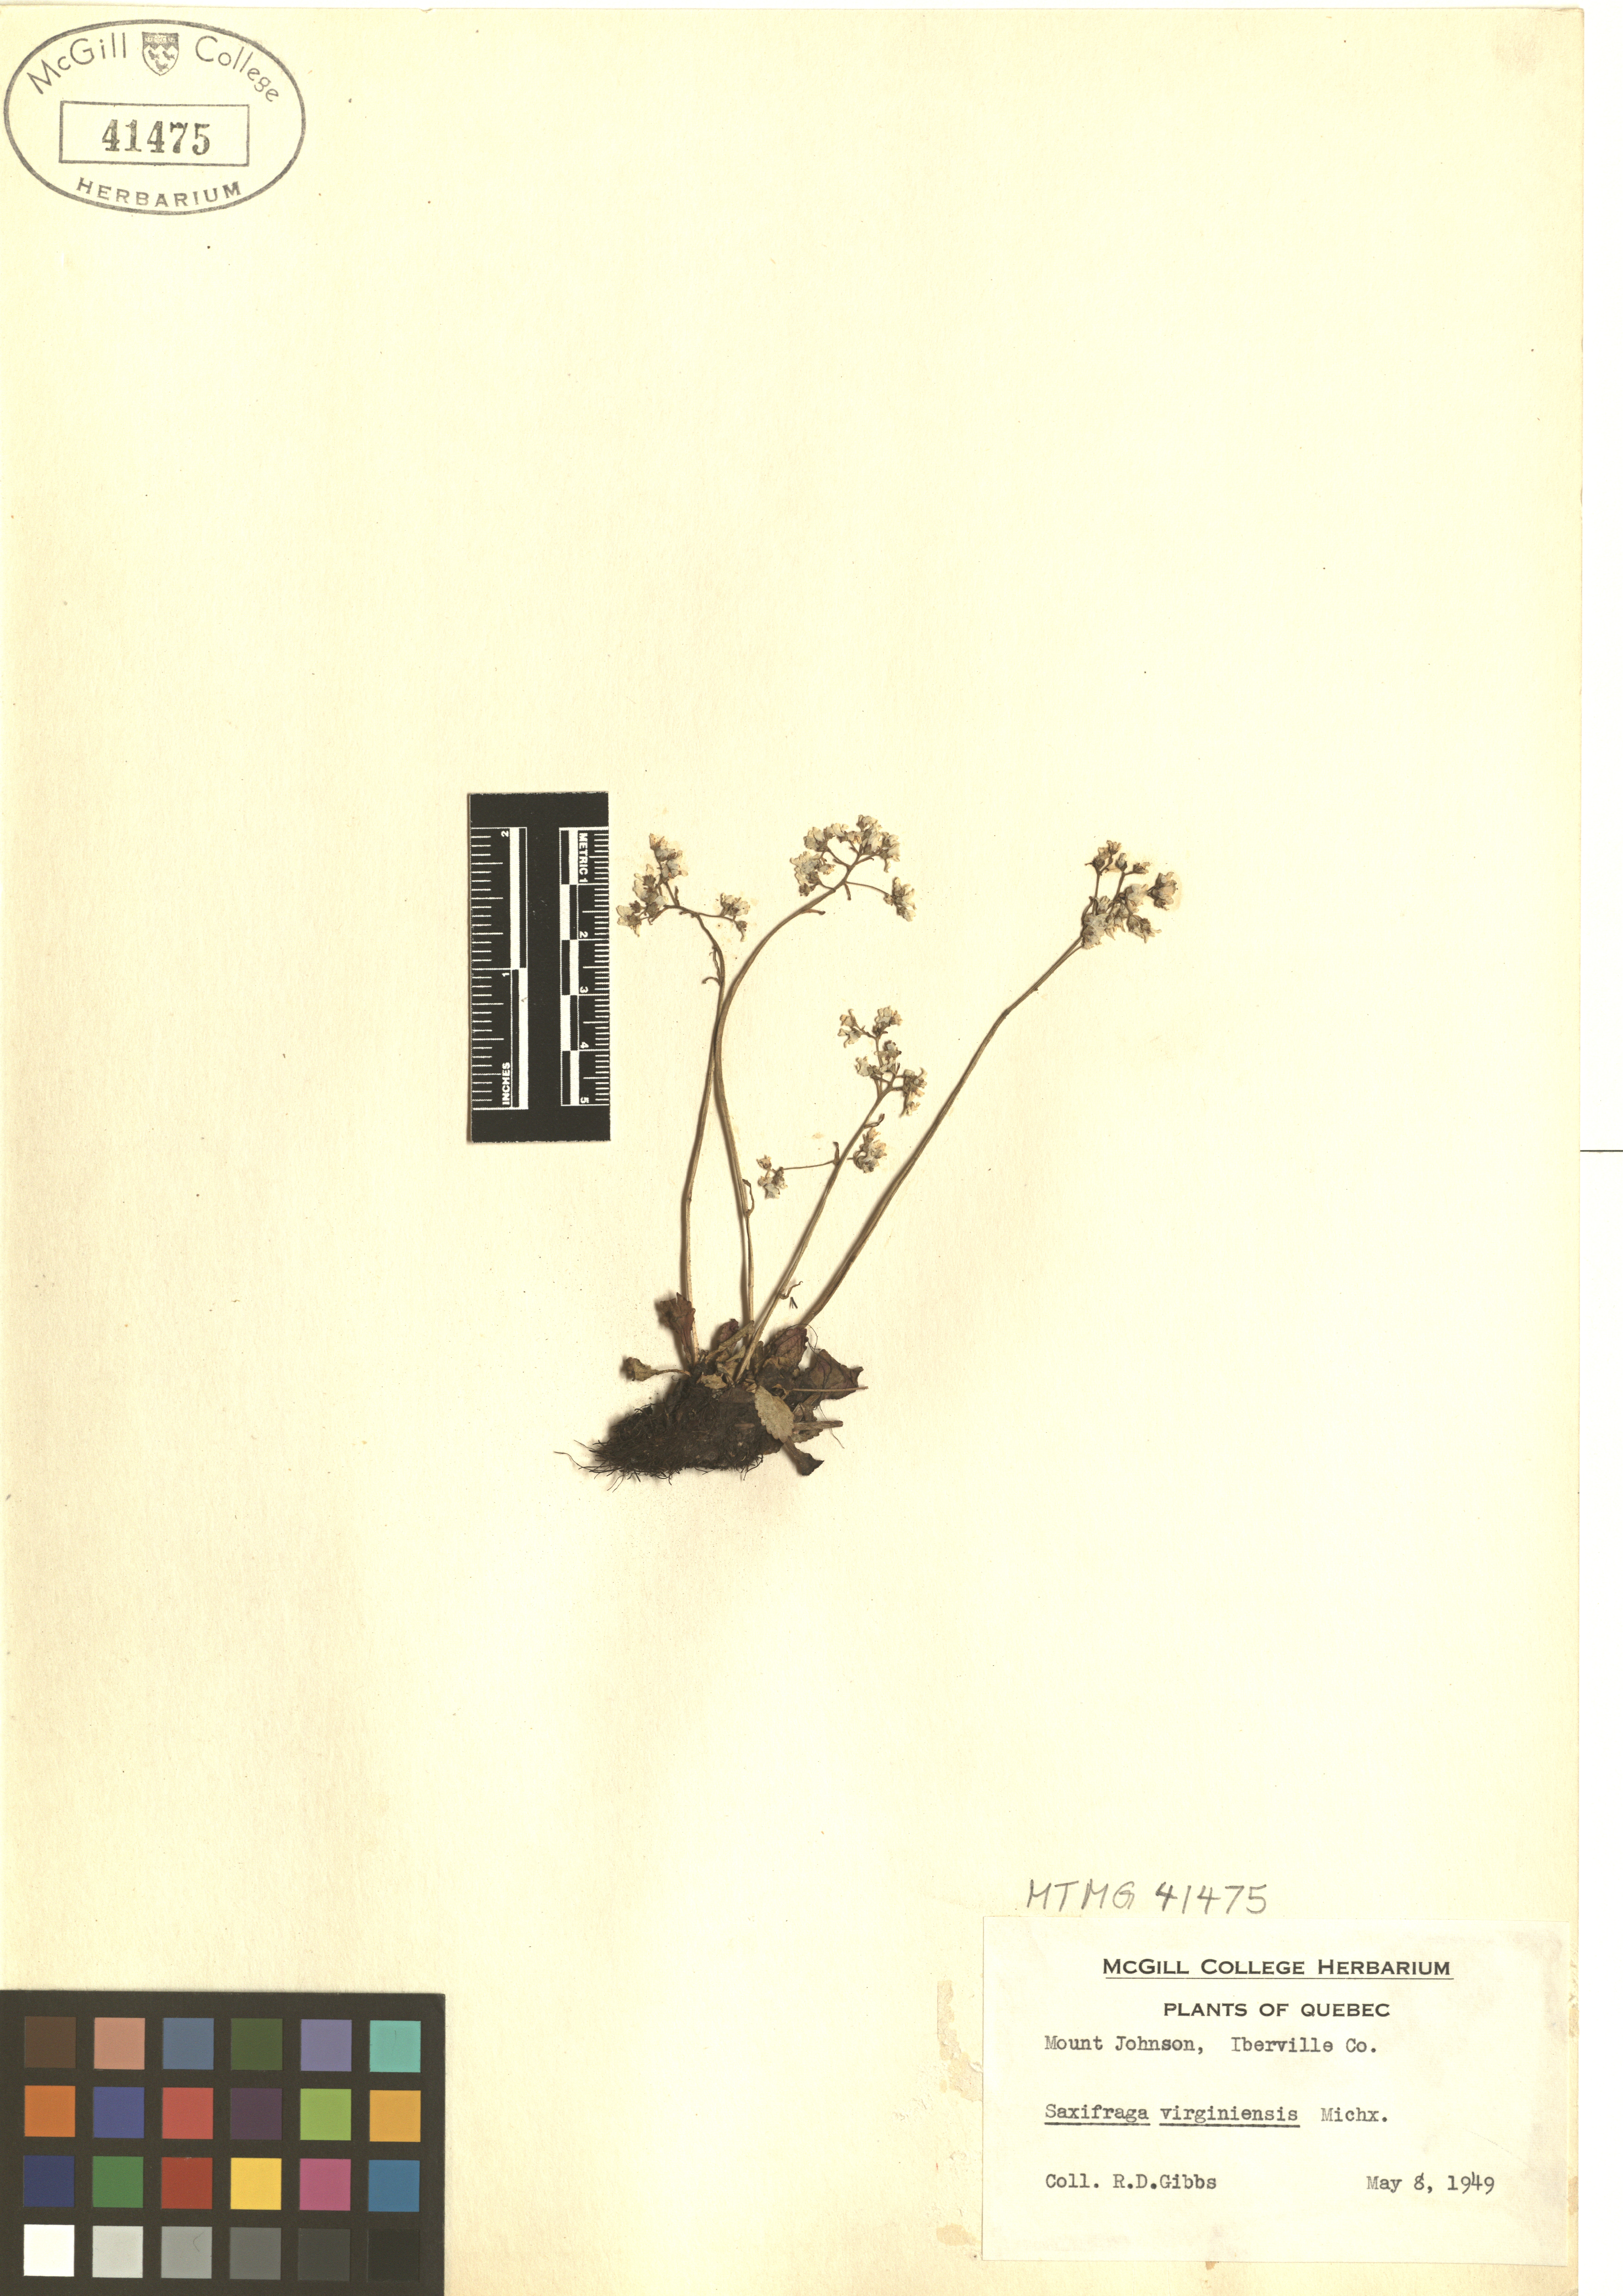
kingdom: Plantae
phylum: Tracheophyta
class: Magnoliopsida
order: Saxifragales
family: Saxifragaceae
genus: Micranthes
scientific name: Micranthes virginiensis
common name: Early saxifrage
